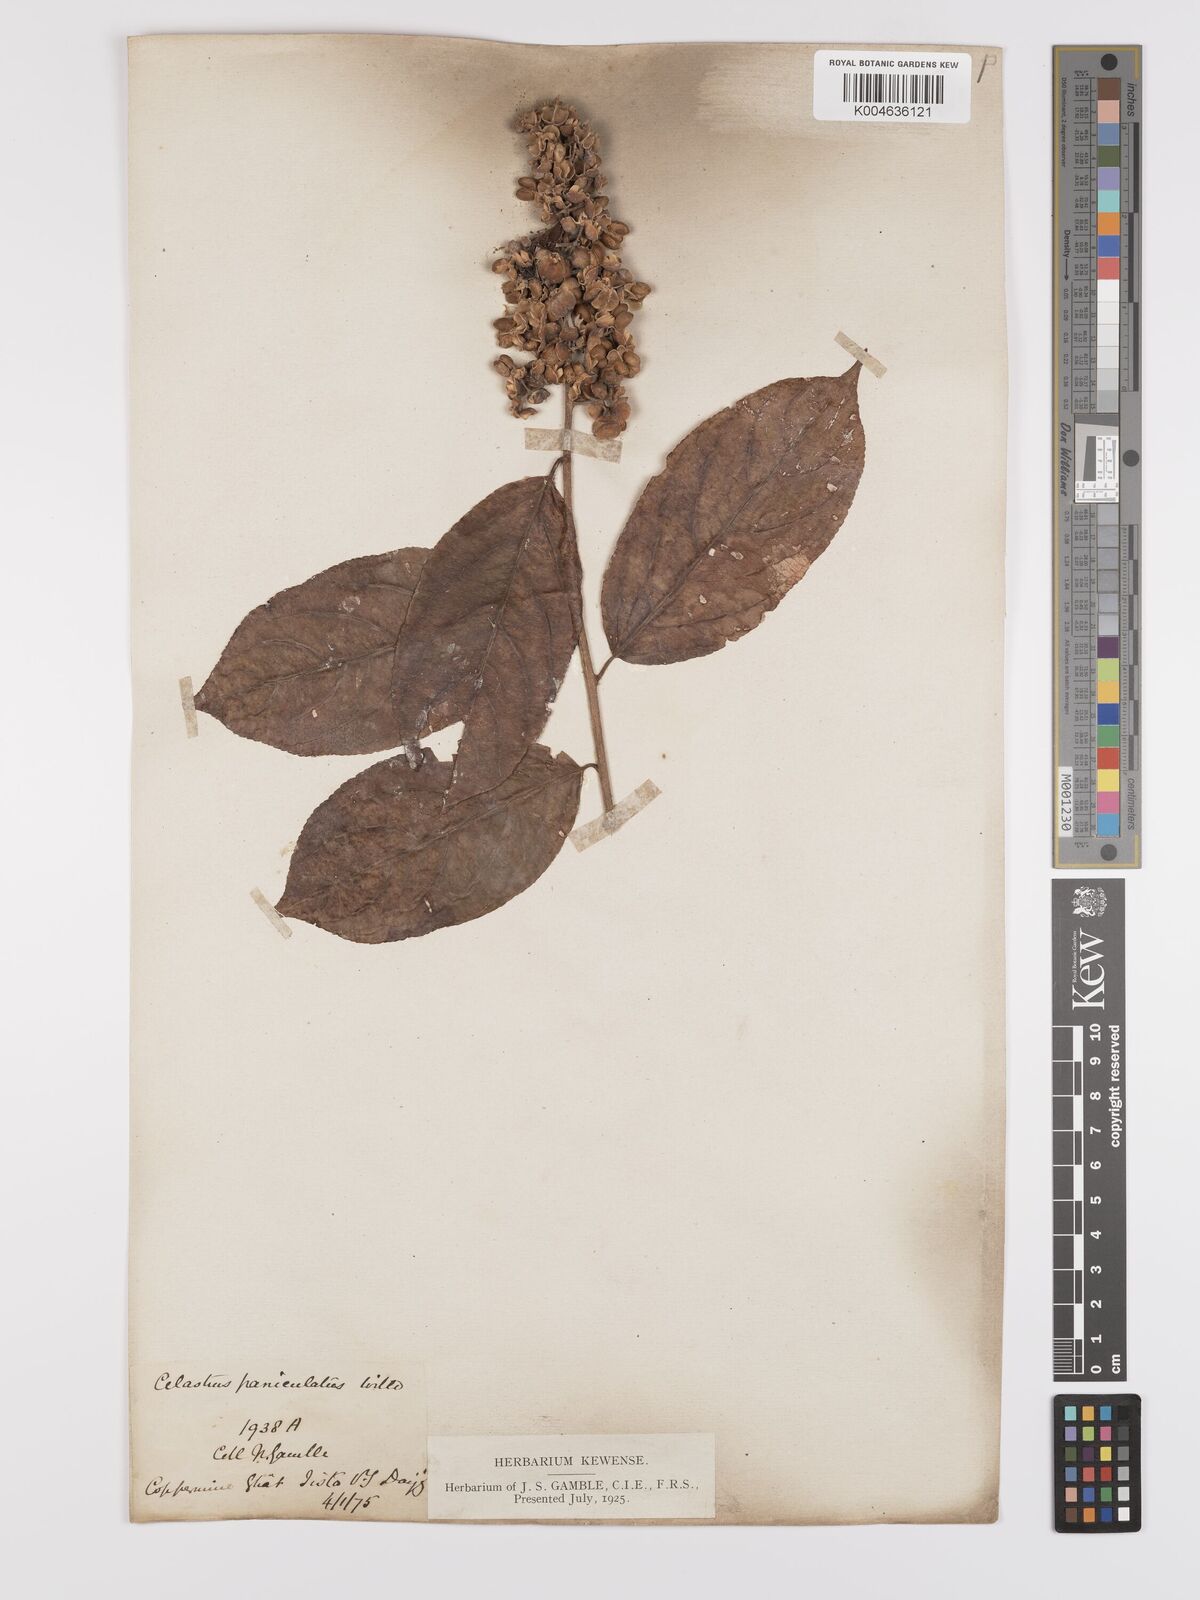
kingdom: Plantae
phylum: Tracheophyta
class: Magnoliopsida
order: Celastrales
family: Celastraceae
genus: Celastrus
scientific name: Celastrus paniculatus
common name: Oriental bittersweet; staff vine
